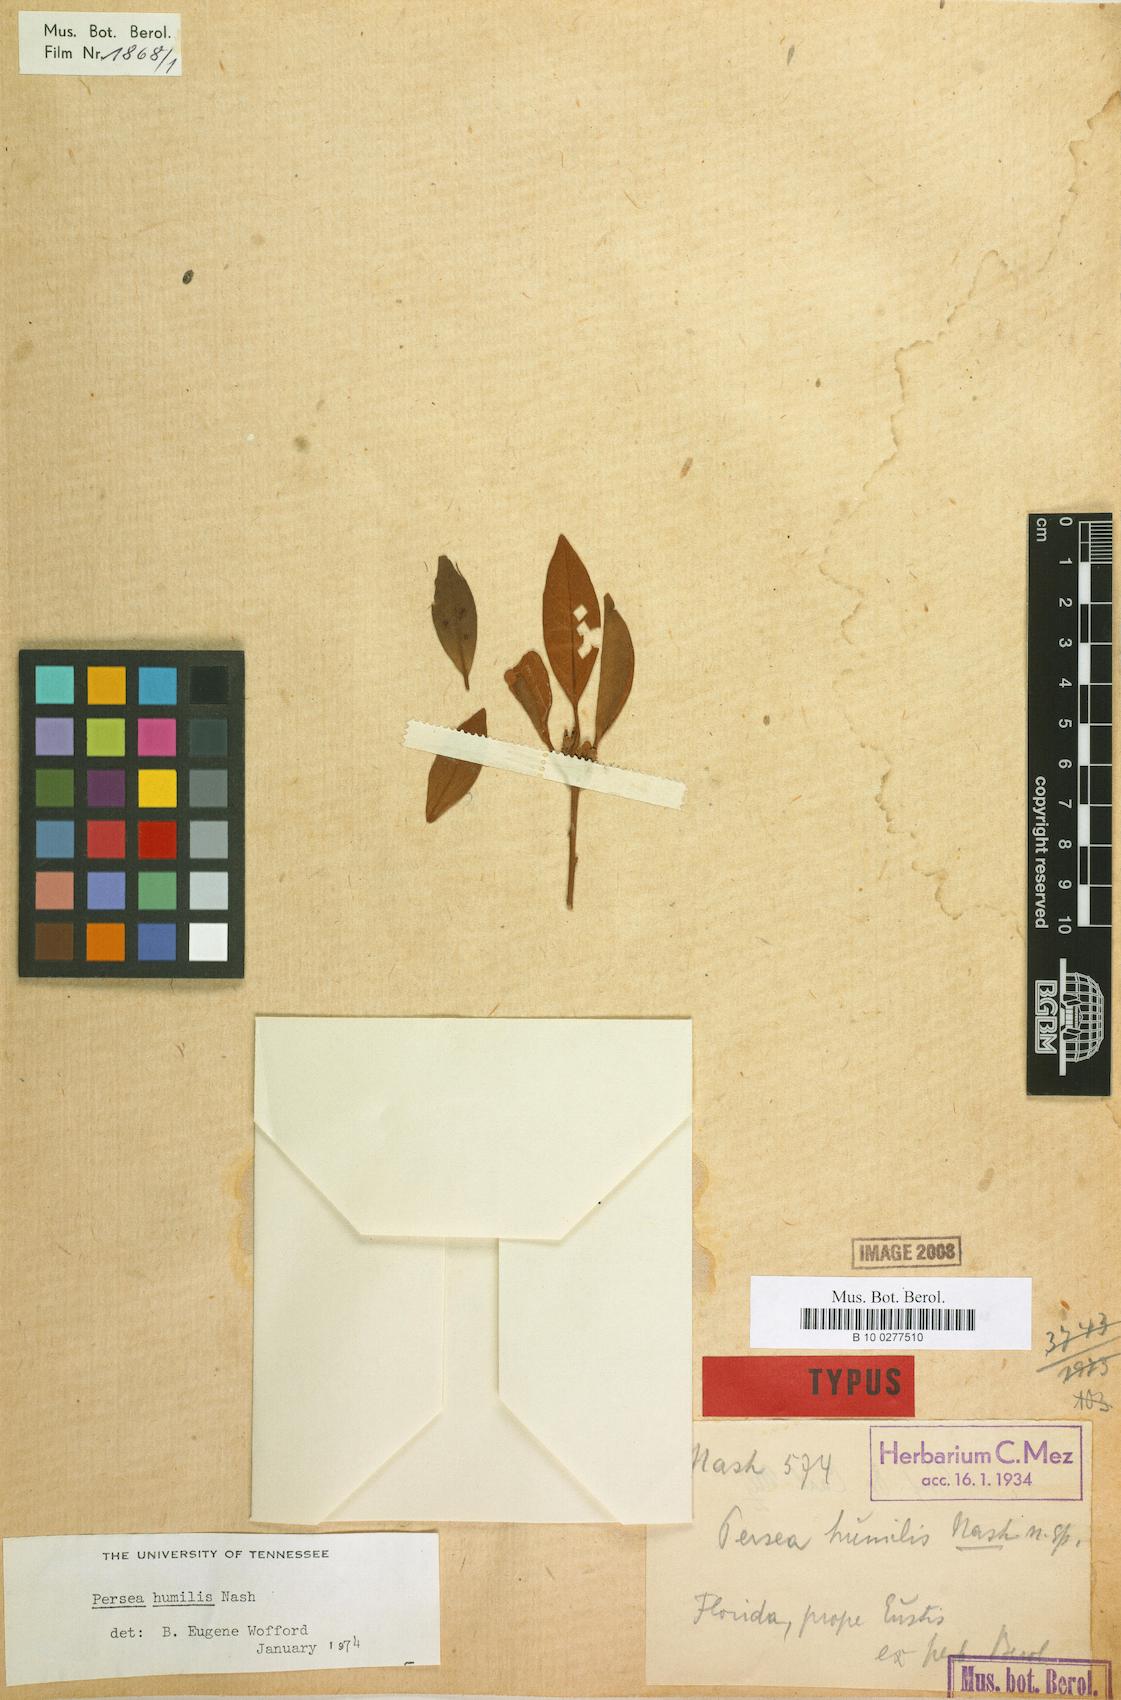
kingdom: Plantae
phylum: Tracheophyta
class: Magnoliopsida
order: Laurales
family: Lauraceae
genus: Persea
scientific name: Persea humilis
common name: Silkbay
